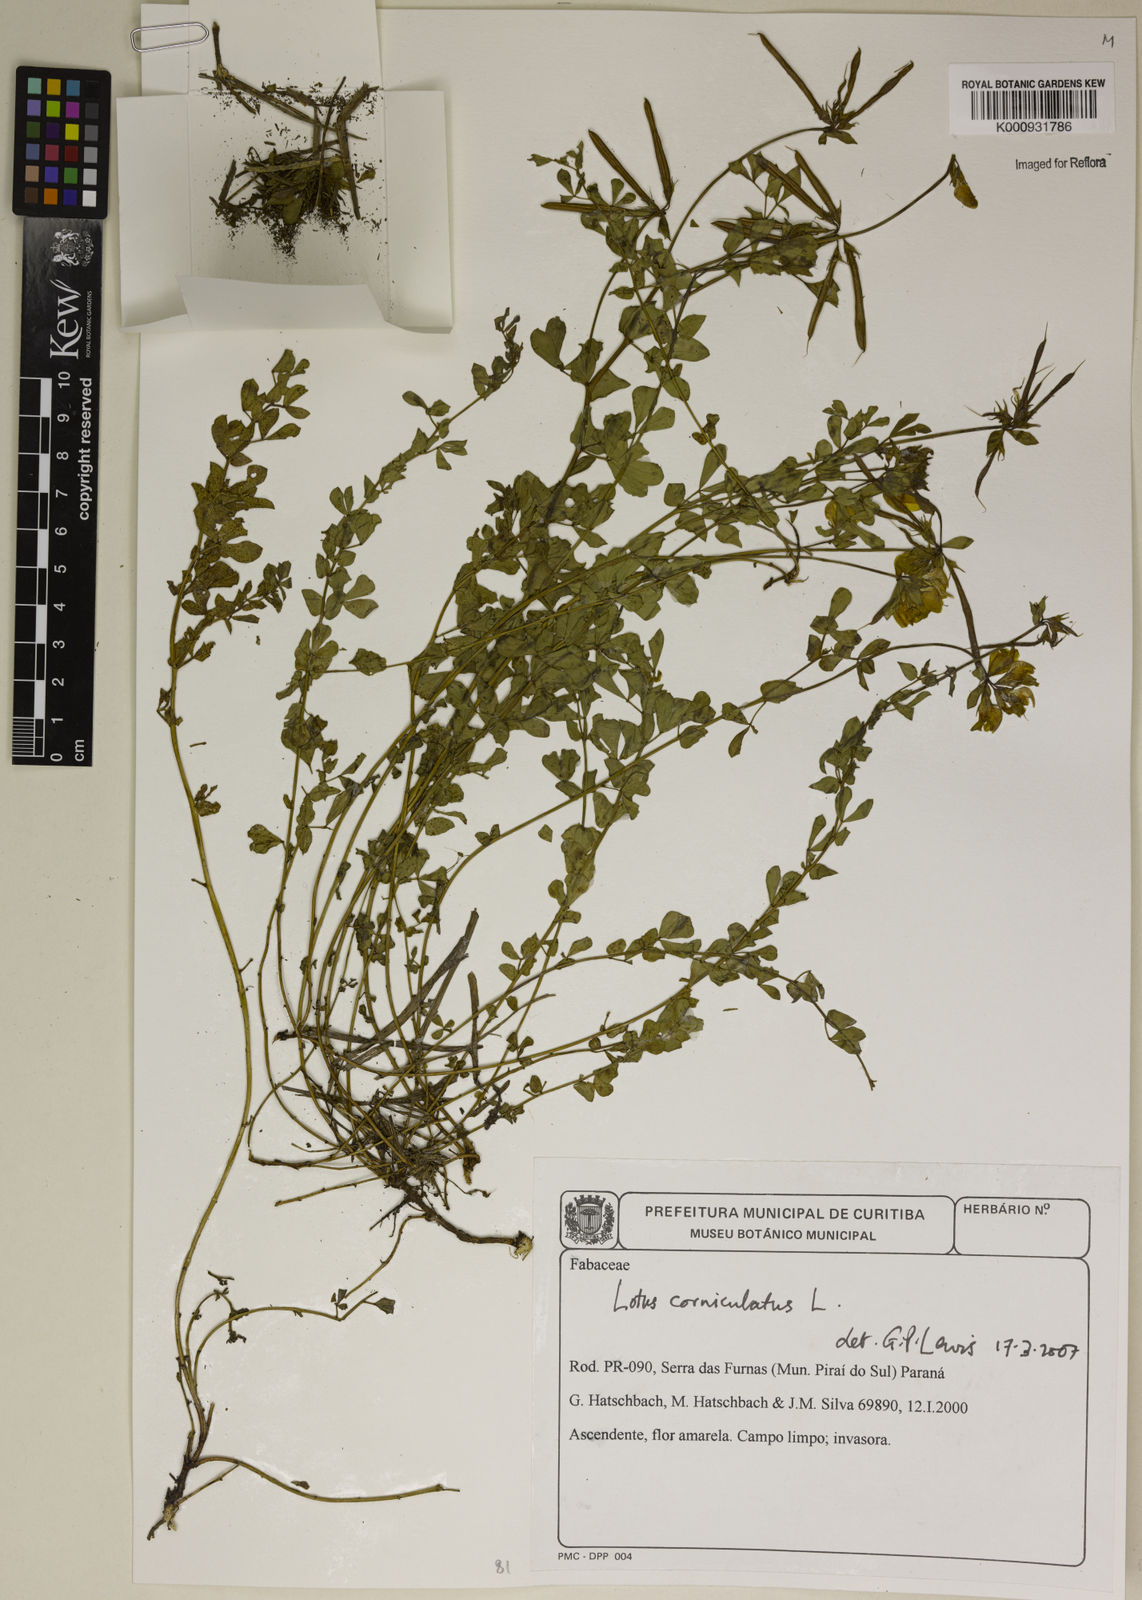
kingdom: Plantae
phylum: Tracheophyta
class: Magnoliopsida
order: Fabales
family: Fabaceae
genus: Lotus
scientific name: Lotus corniculatus
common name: Common bird's-foot-trefoil
